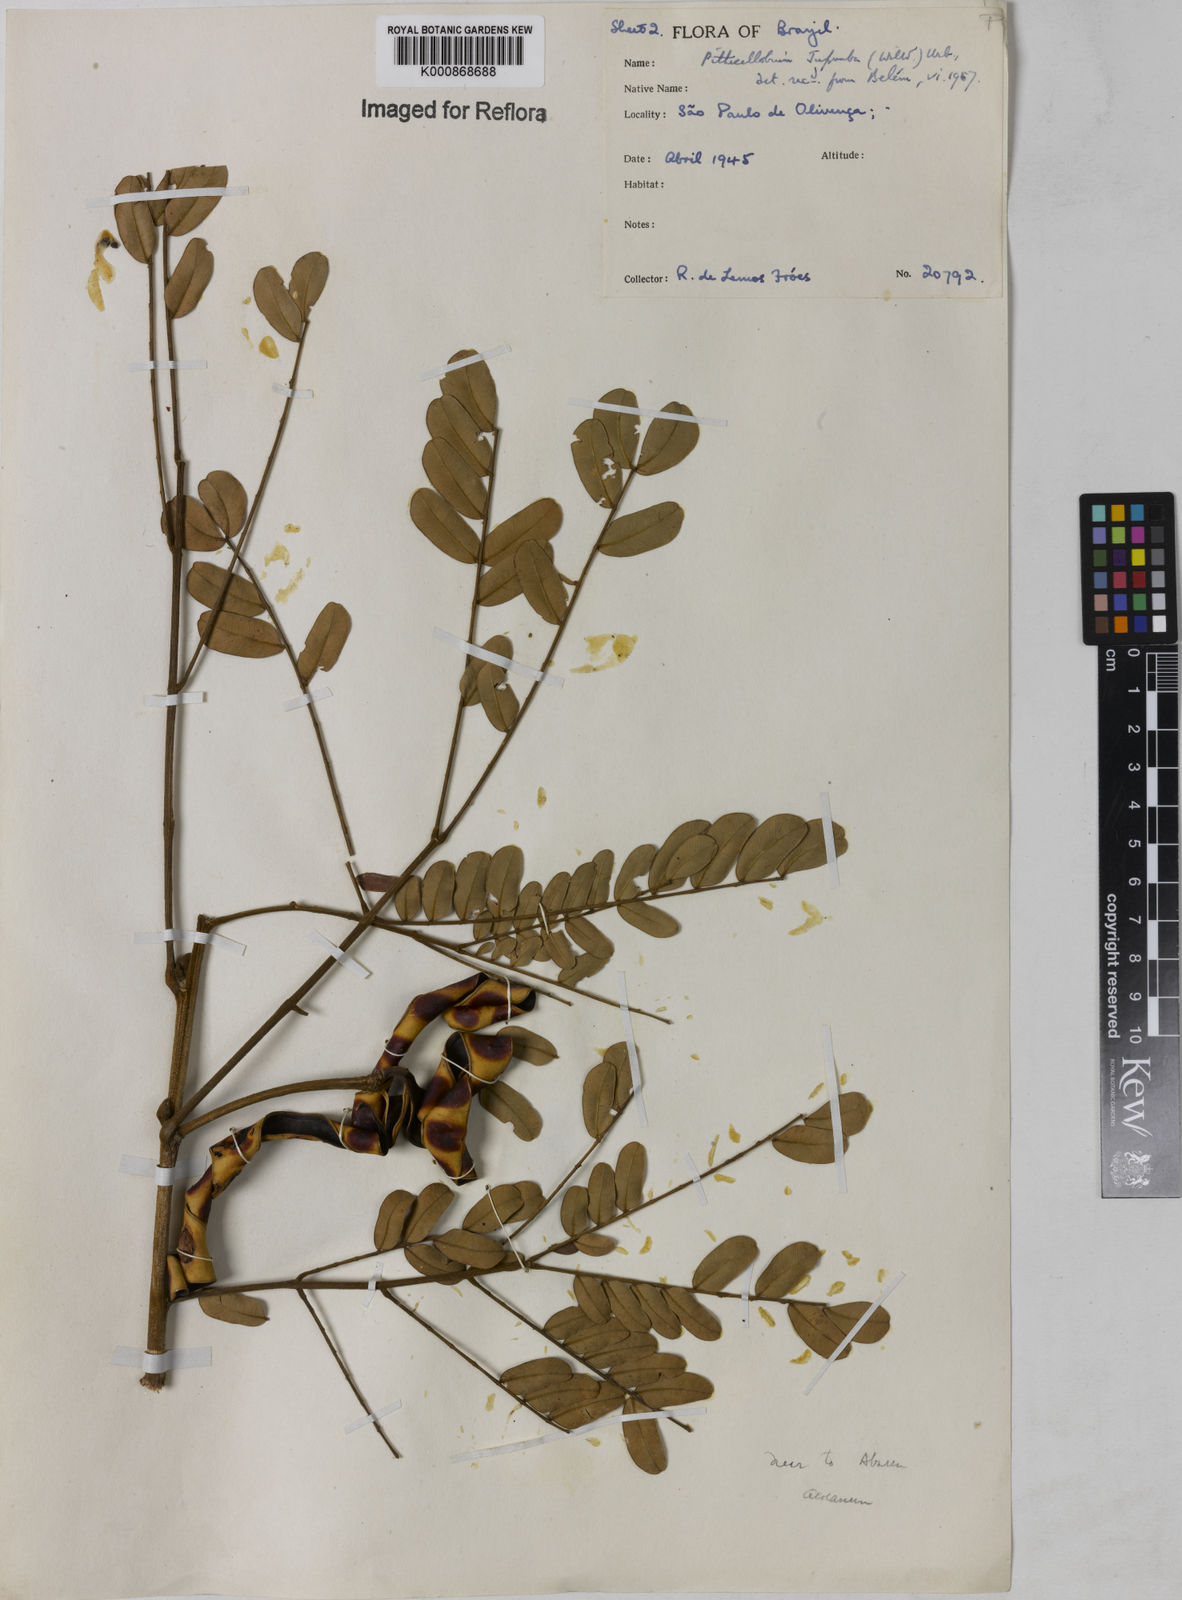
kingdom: Plantae
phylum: Tracheophyta
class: Magnoliopsida
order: Fabales
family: Fabaceae
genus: Jupunba
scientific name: Jupunba floribunda
